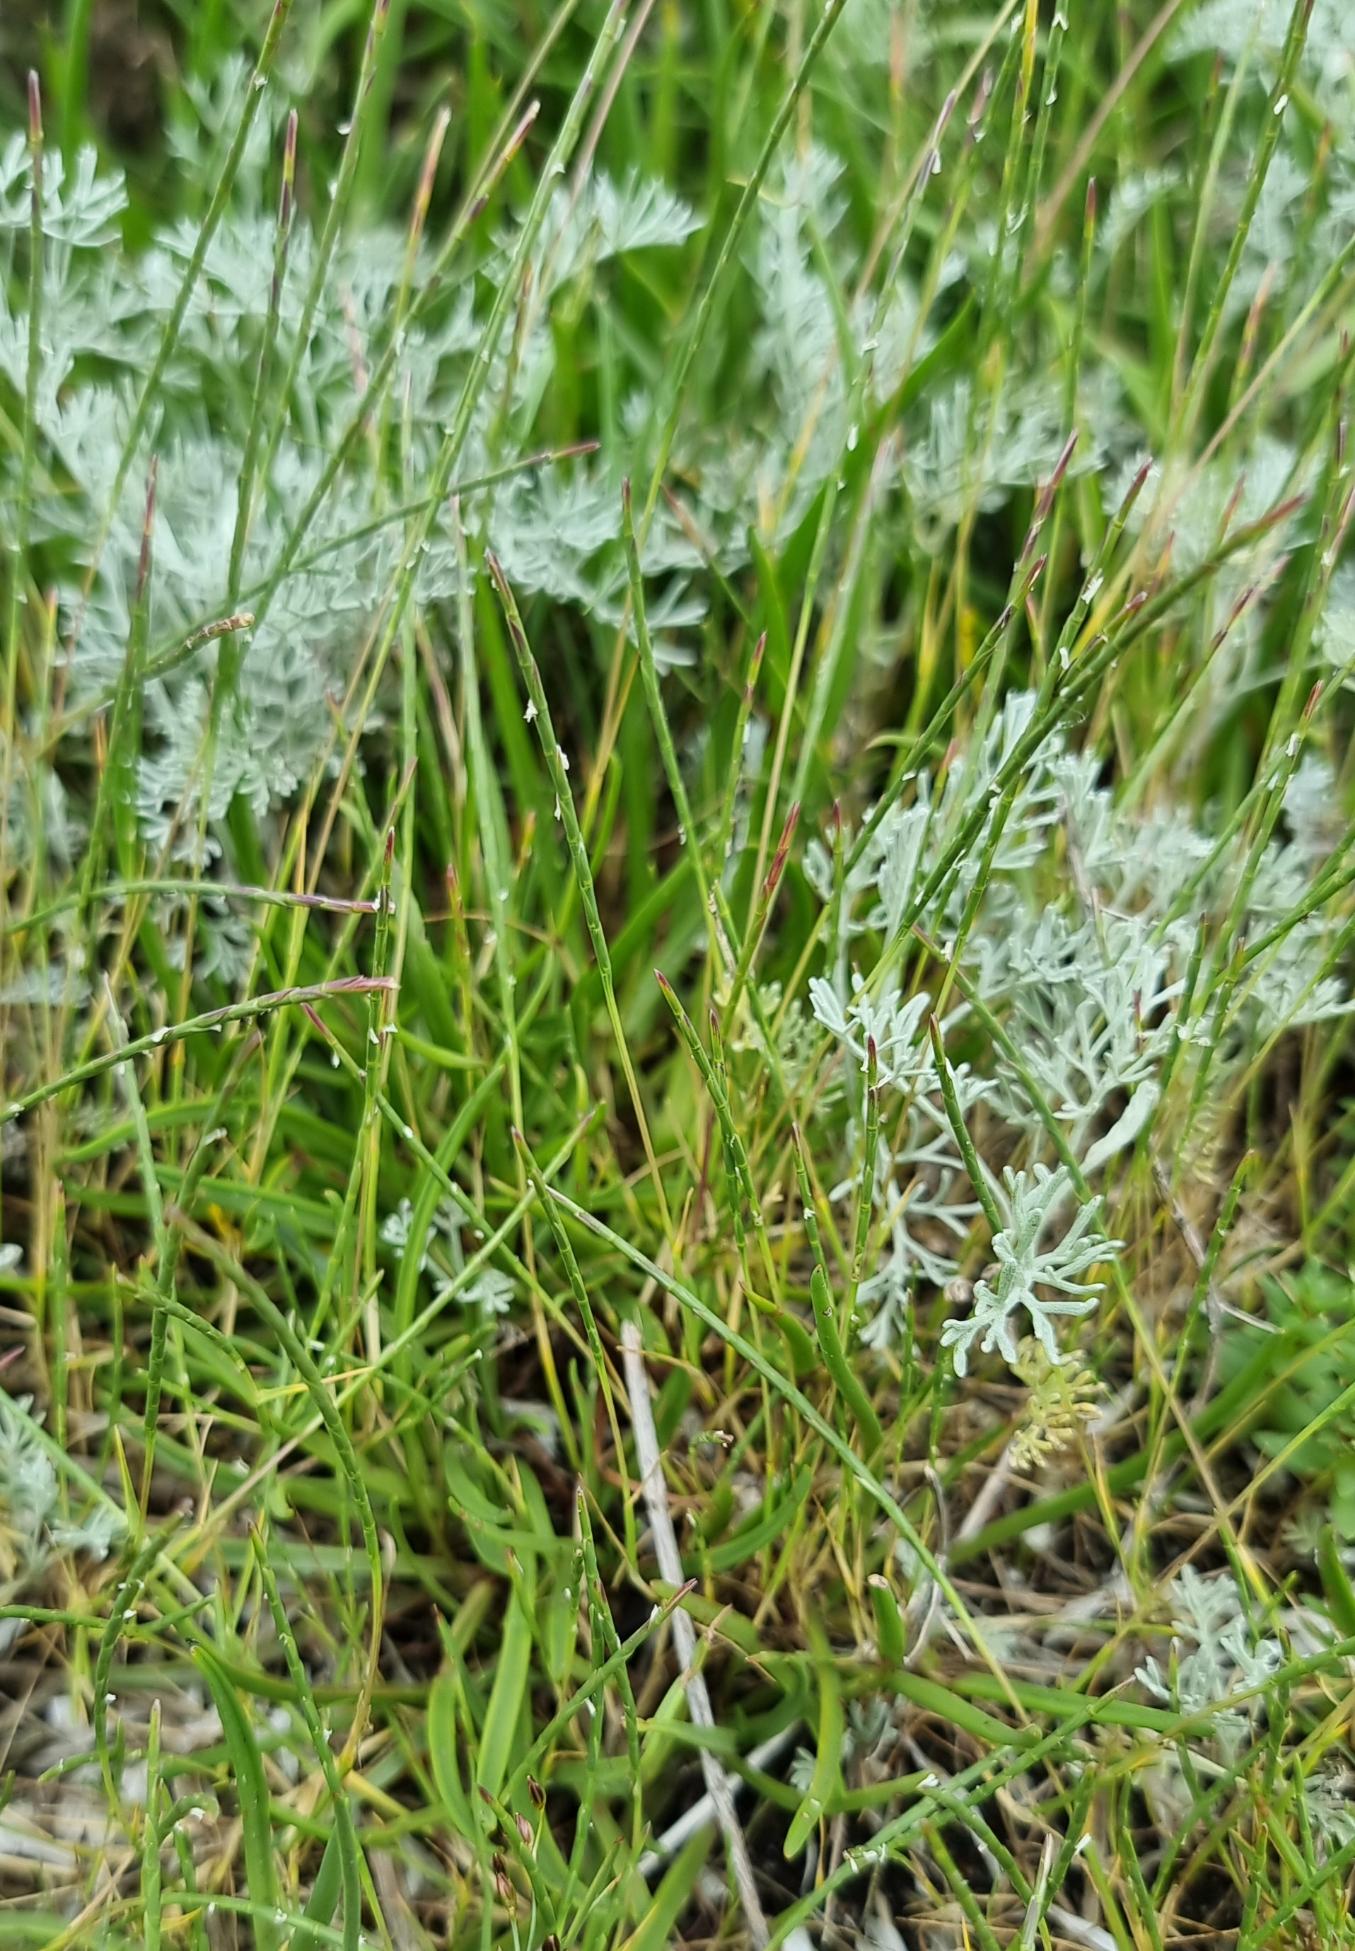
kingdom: Plantae
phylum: Tracheophyta
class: Liliopsida
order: Poales
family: Poaceae
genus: Parapholis
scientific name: Parapholis strigosa
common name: Spidshale
